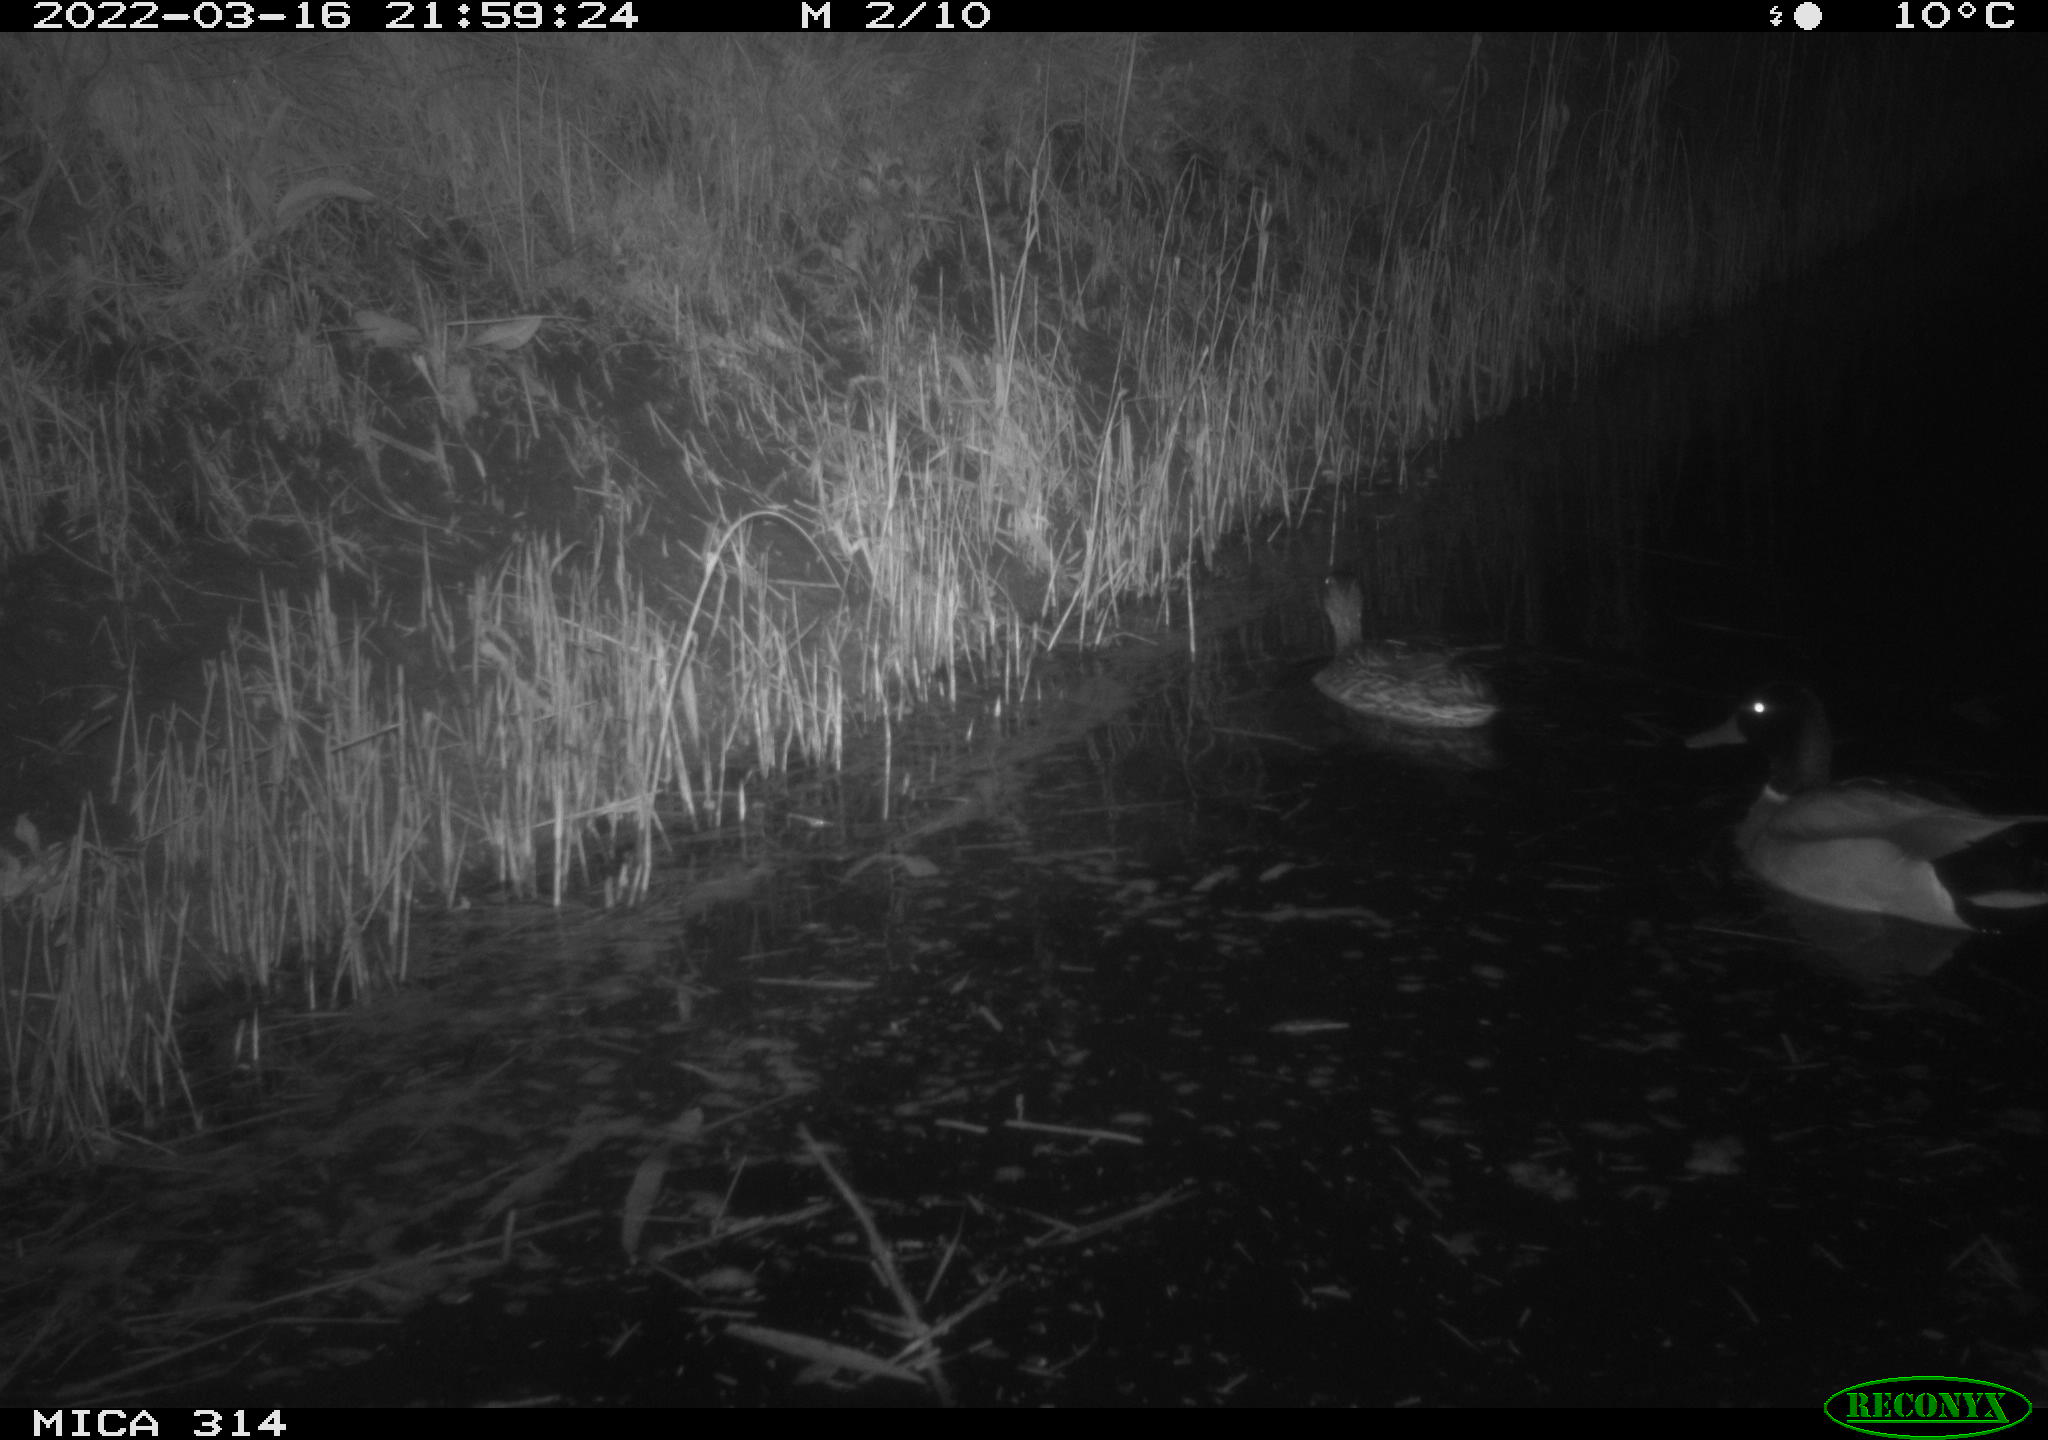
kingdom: Animalia
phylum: Chordata
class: Aves
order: Anseriformes
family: Anatidae
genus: Anas
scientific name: Anas platyrhynchos
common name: Mallard
